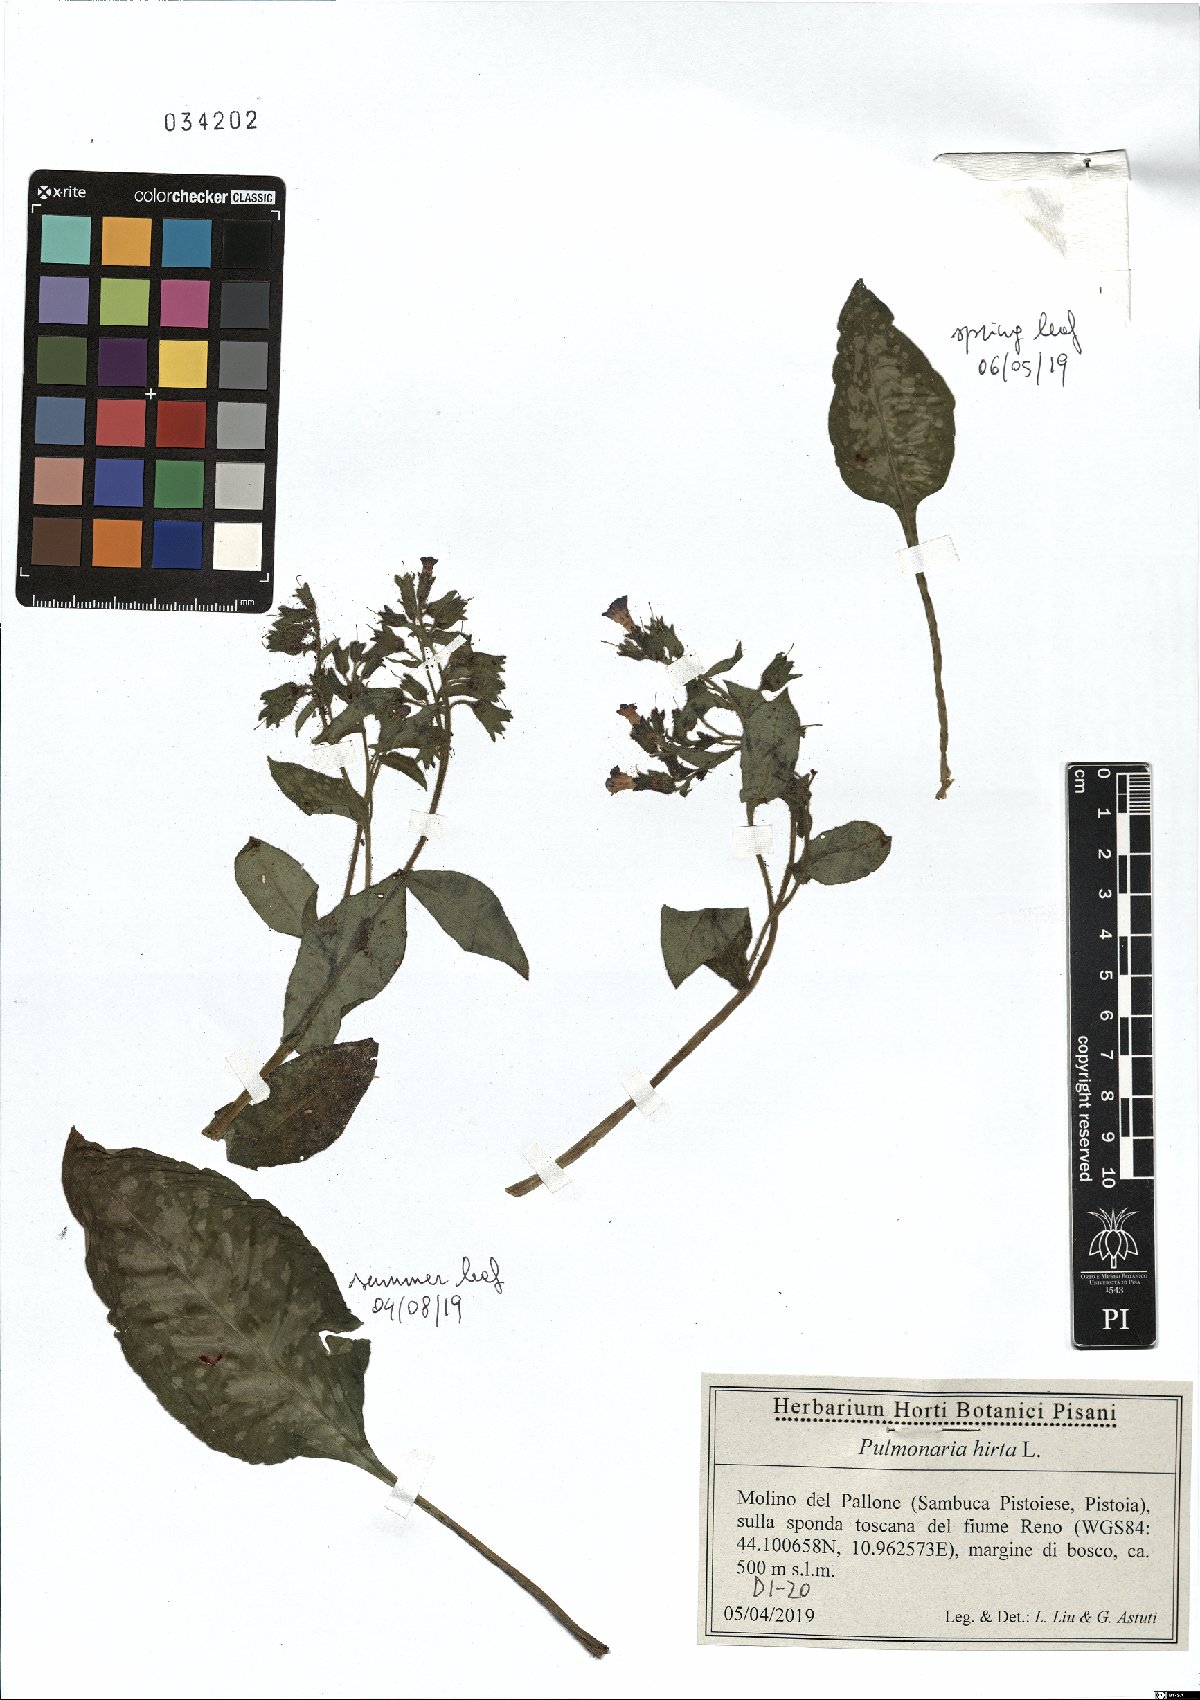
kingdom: Plantae
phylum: Tracheophyta
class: Magnoliopsida
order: Boraginales
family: Boraginaceae
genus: Pulmonaria
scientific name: Pulmonaria hirta
